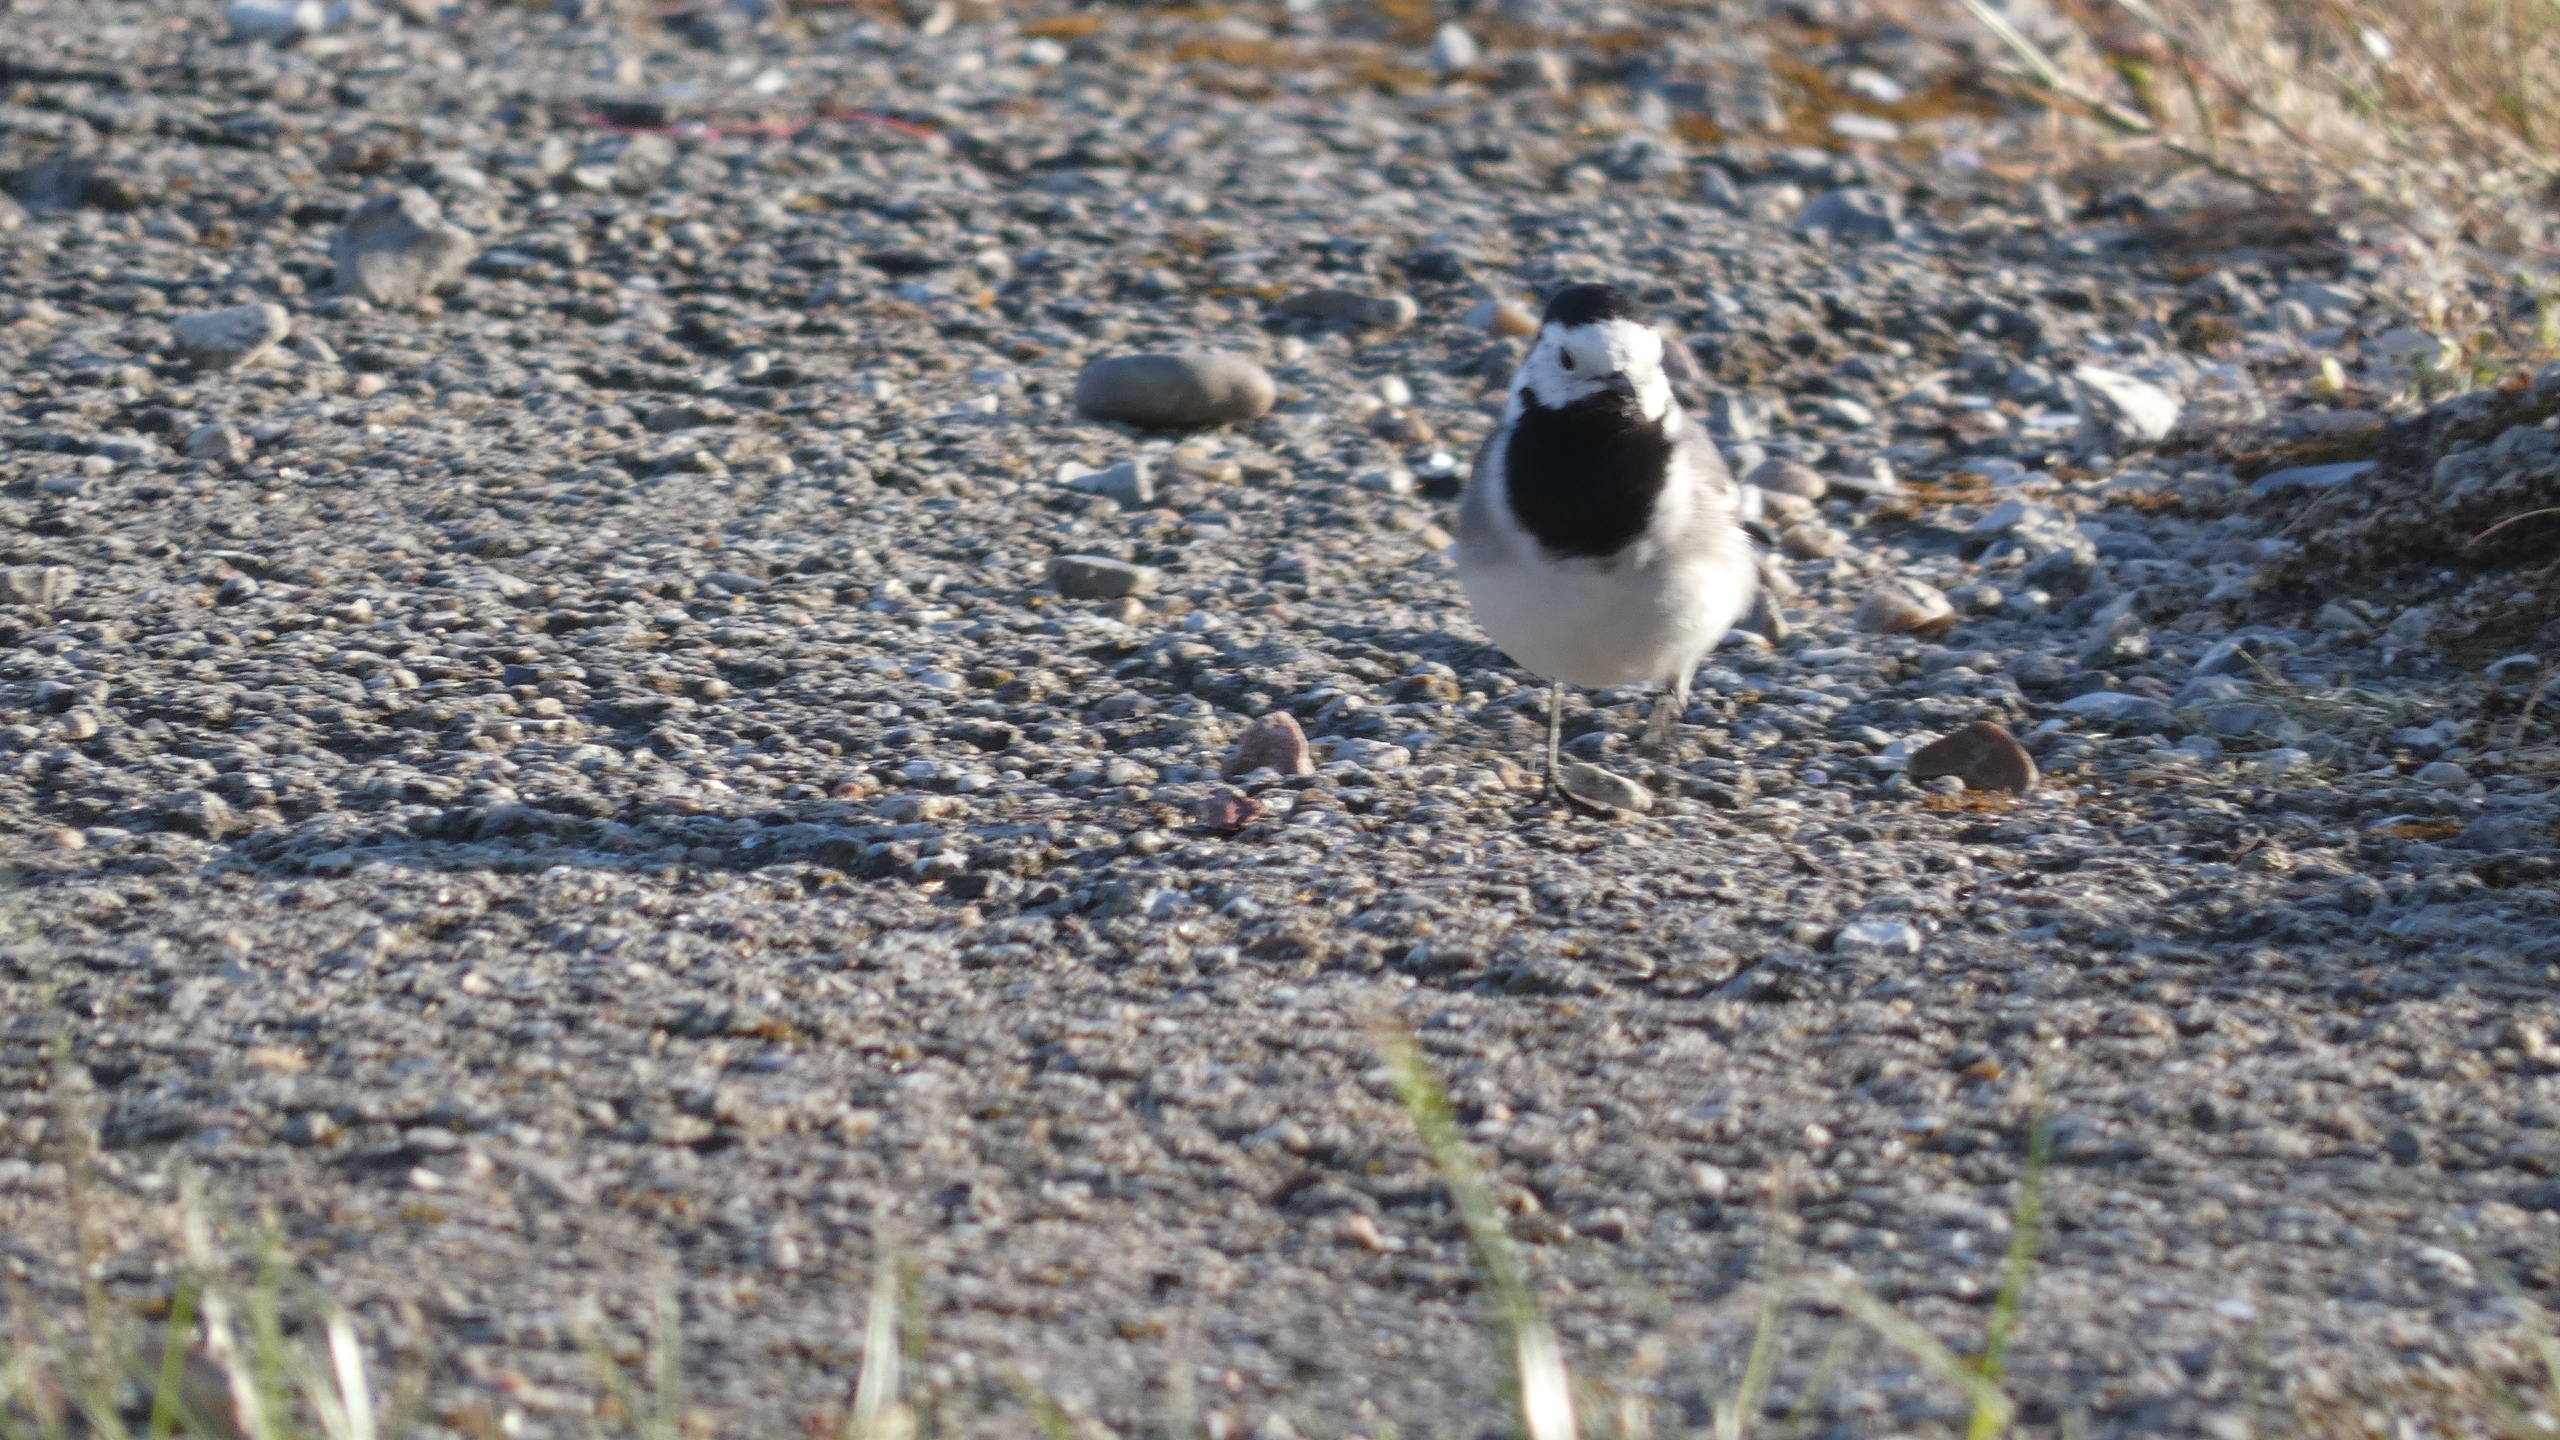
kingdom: Animalia
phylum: Chordata
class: Aves
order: Passeriformes
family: Motacillidae
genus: Motacilla
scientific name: Motacilla alba
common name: Hvid vipstjert
